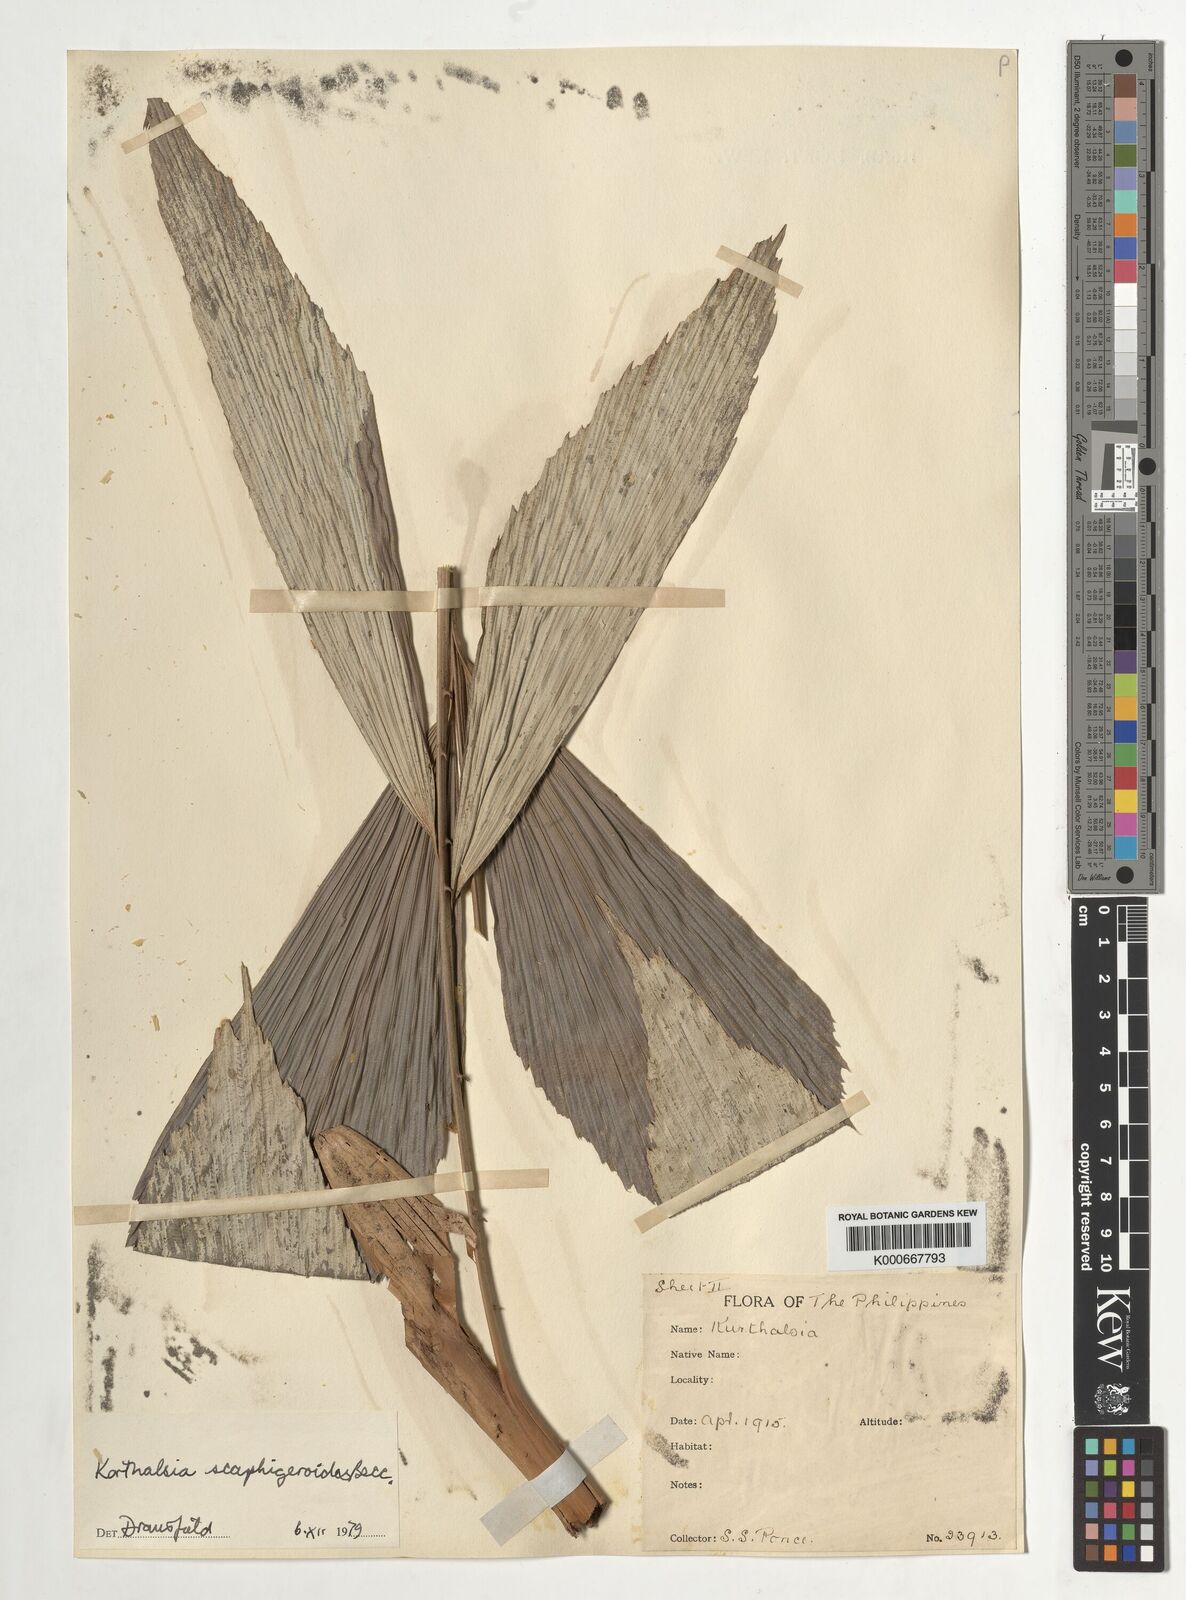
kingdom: Plantae
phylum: Tracheophyta
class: Liliopsida
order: Arecales
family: Arecaceae
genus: Korthalsia
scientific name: Korthalsia scaphigeroides
